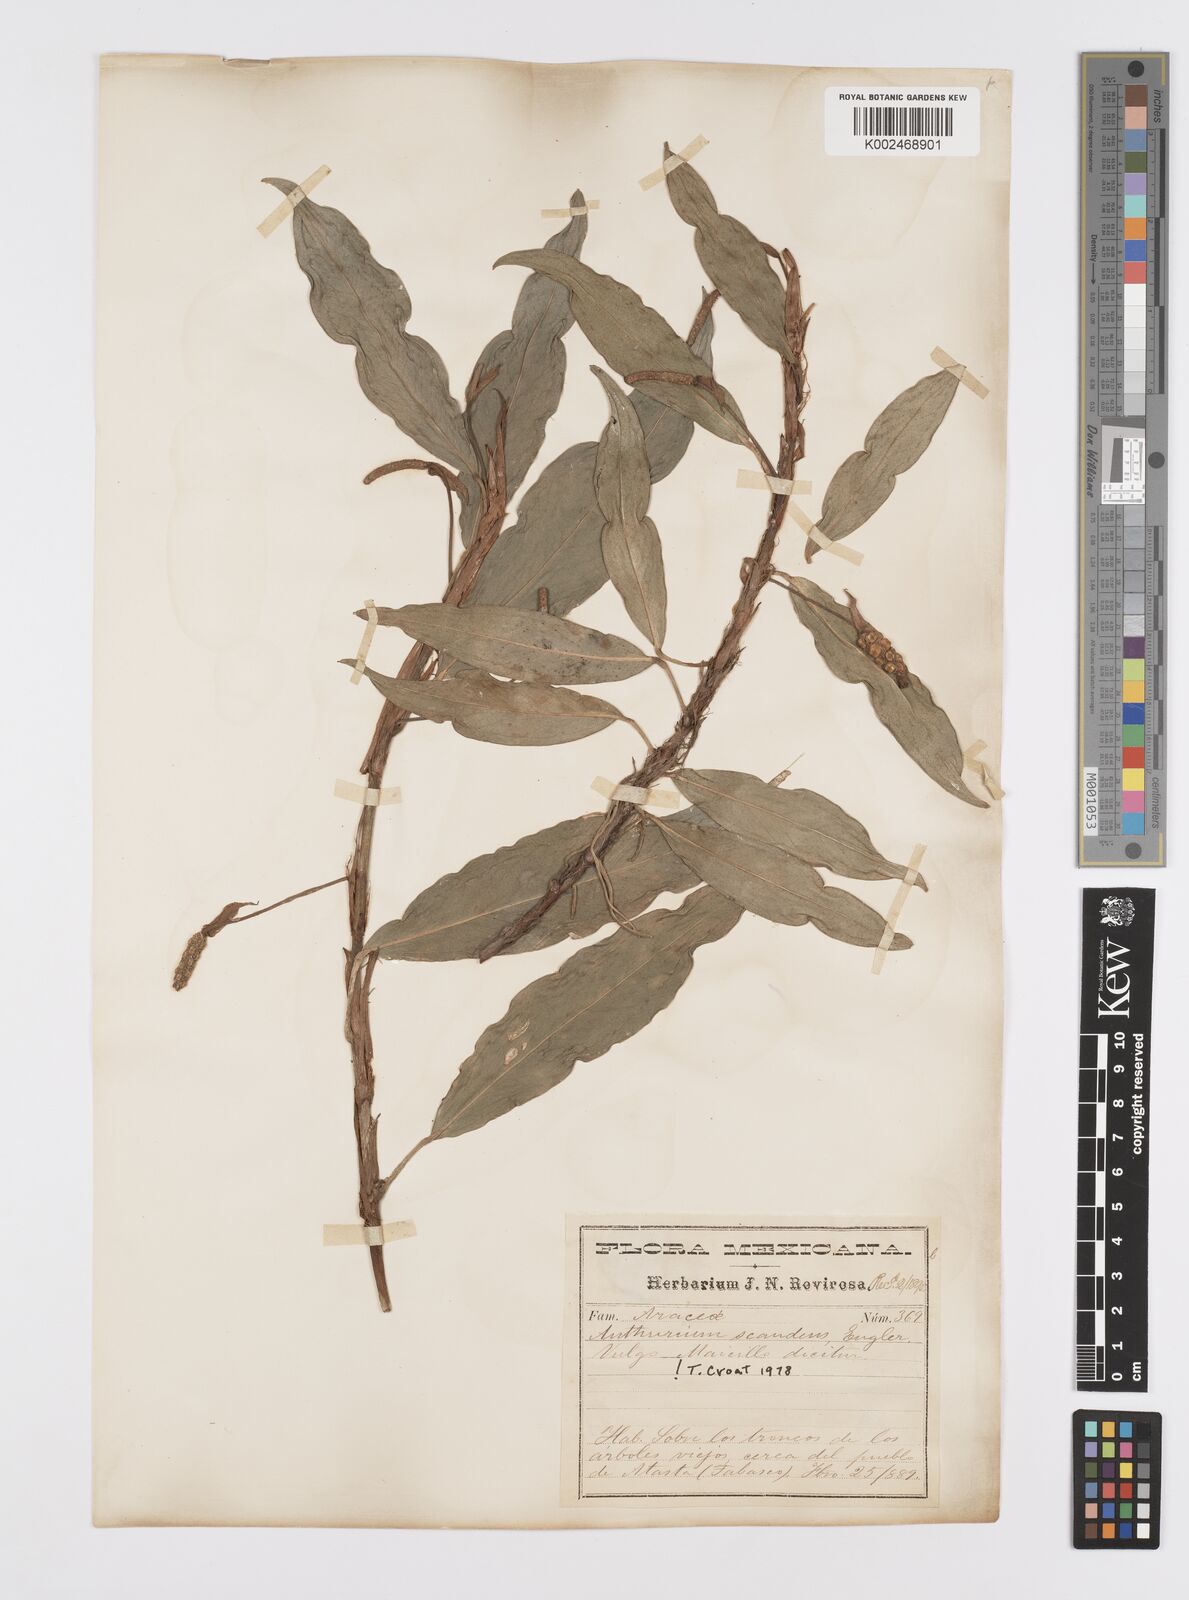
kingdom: Plantae
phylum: Tracheophyta
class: Liliopsida
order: Alismatales
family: Araceae
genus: Anthurium
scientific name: Anthurium scandens
